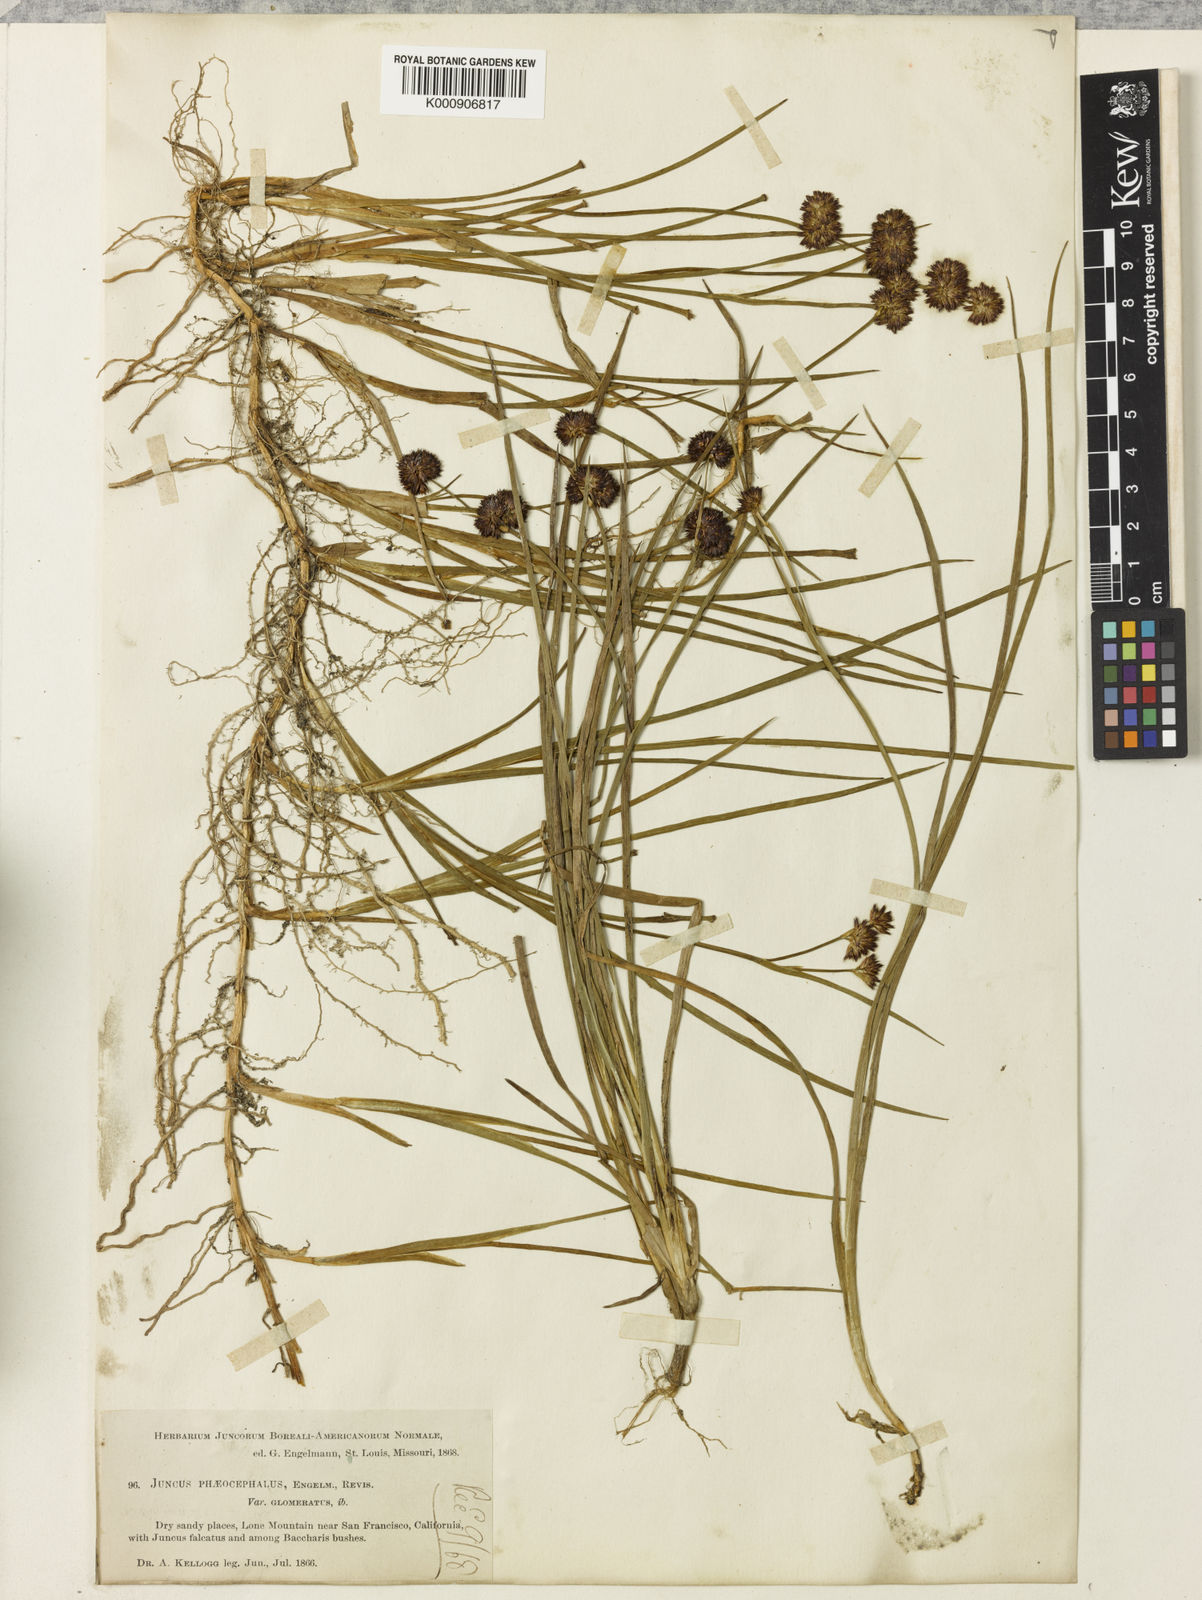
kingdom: Plantae
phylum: Tracheophyta
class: Liliopsida
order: Poales
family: Juncaceae
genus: Juncus
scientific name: Juncus phaeocephalus
